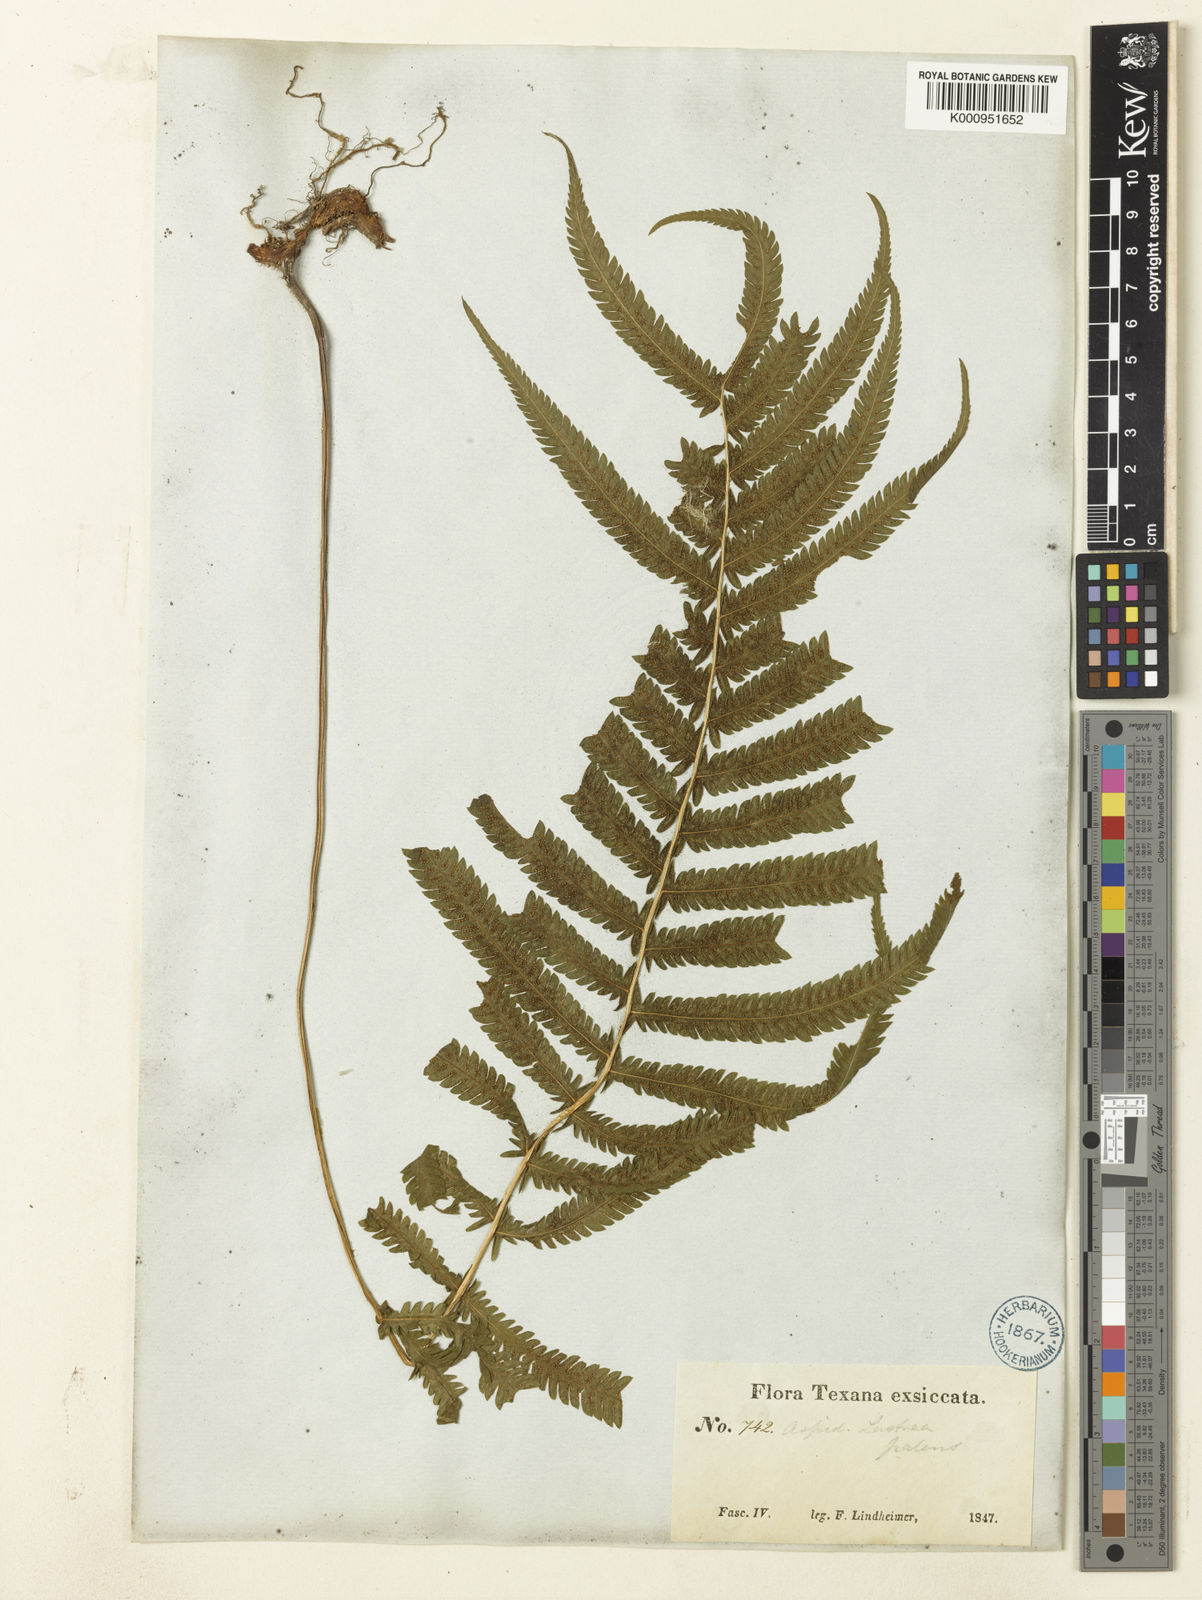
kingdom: Plantae
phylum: Tracheophyta
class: Polypodiopsida
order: Polypodiales
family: Thelypteridaceae
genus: Christella
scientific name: Christella
